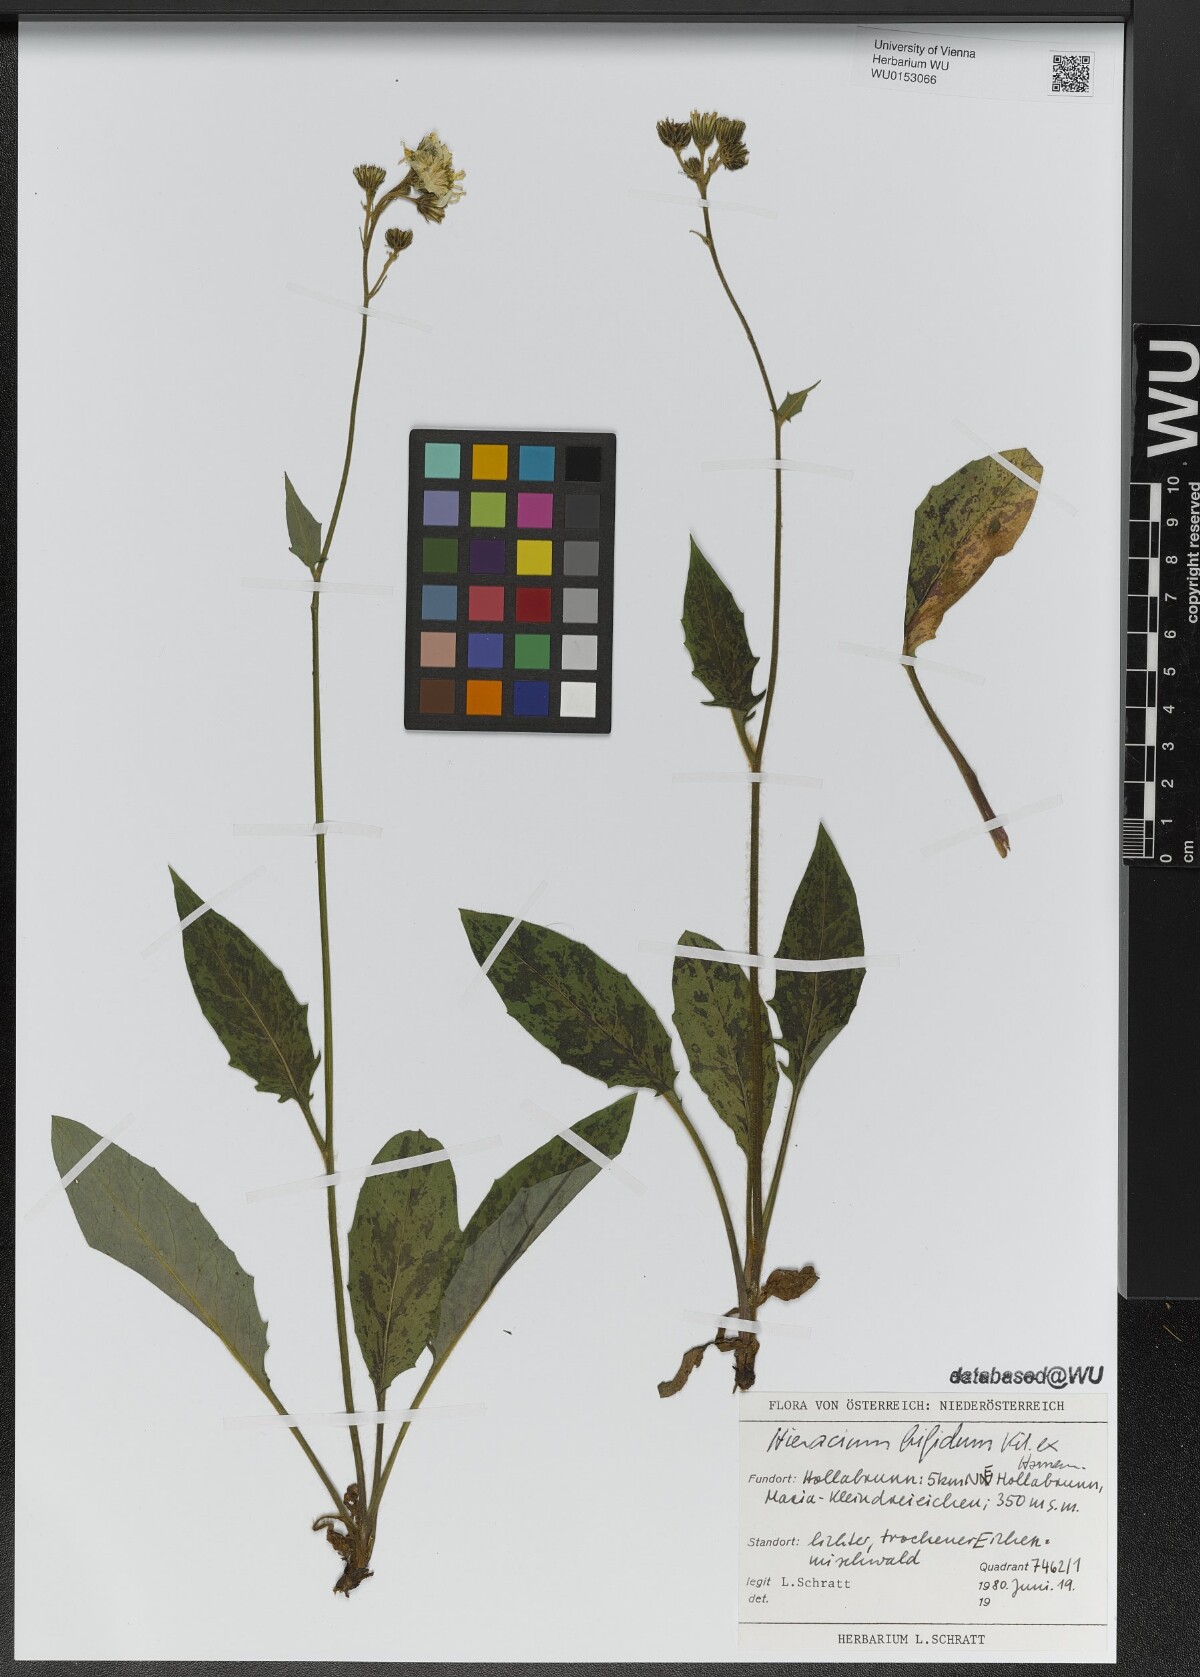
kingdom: Plantae
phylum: Tracheophyta
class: Magnoliopsida
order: Asterales
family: Asteraceae
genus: Hieracium
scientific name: Hieracium bifidum
